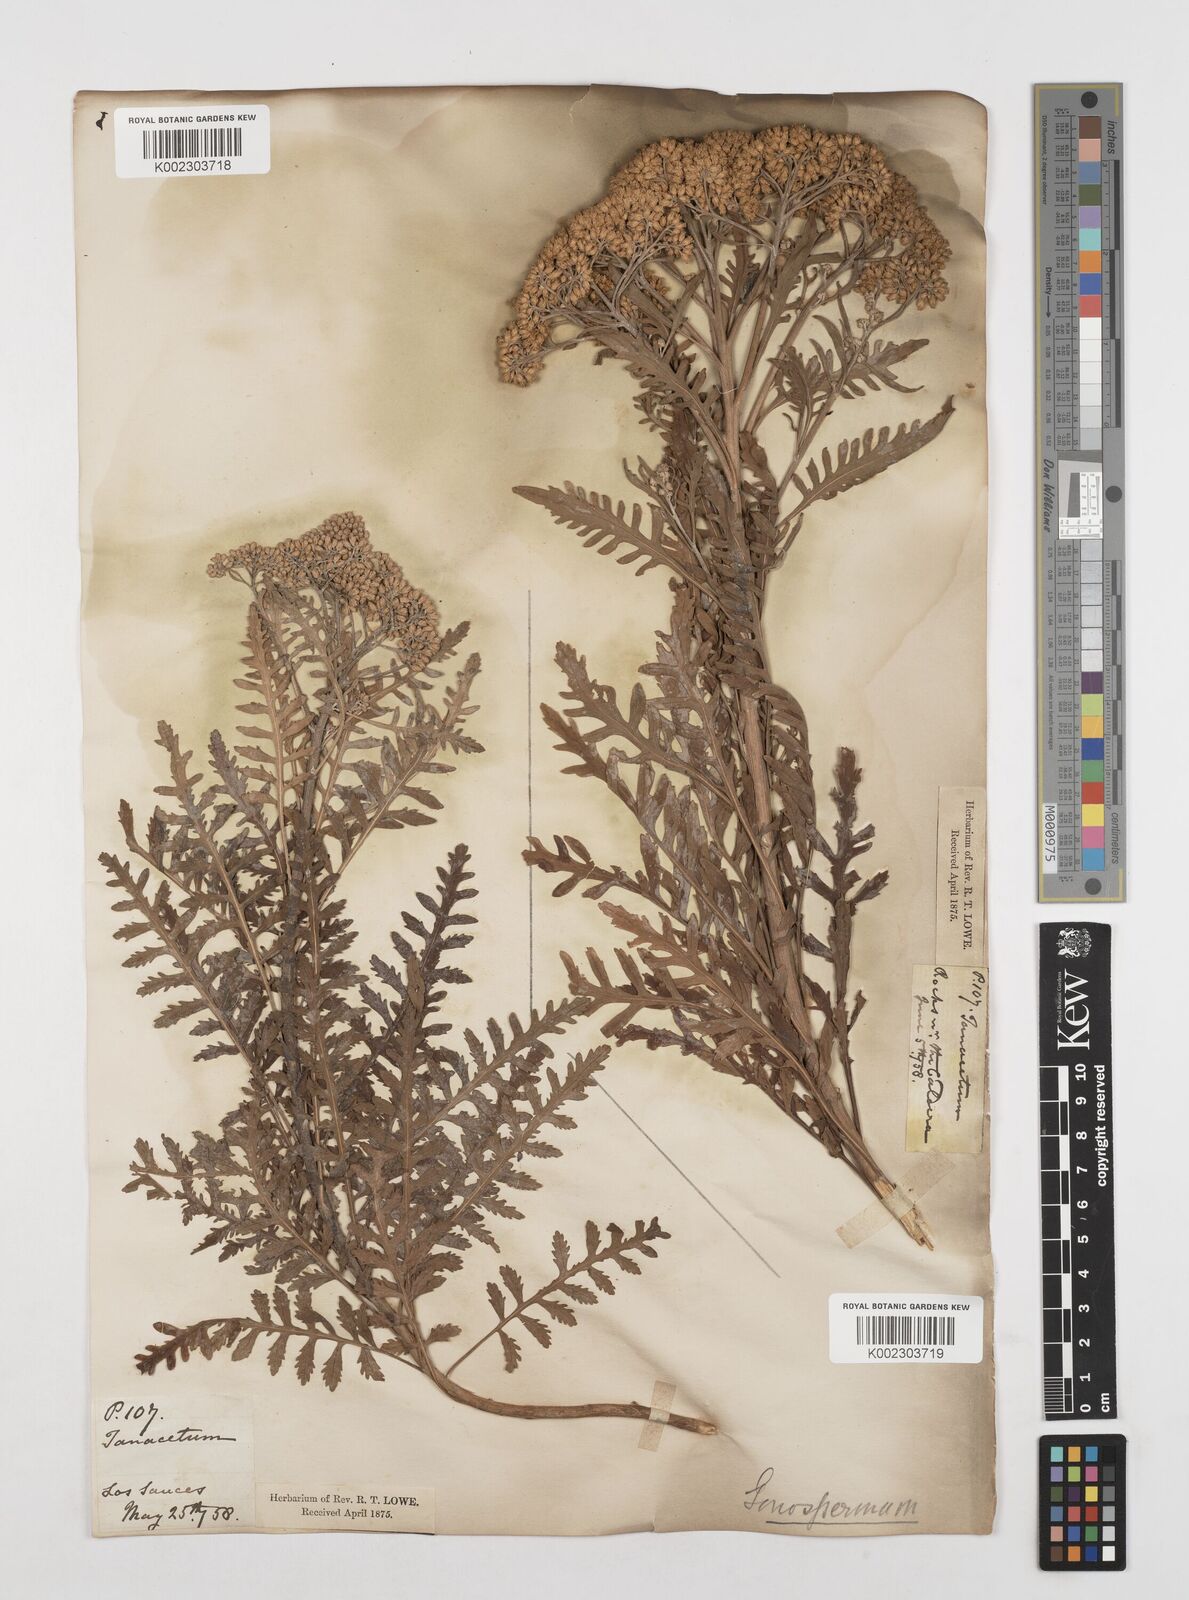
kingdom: Plantae
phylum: Tracheophyta
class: Magnoliopsida
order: Asterales
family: Asteraceae
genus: Gonospermum
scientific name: Gonospermum canariense
